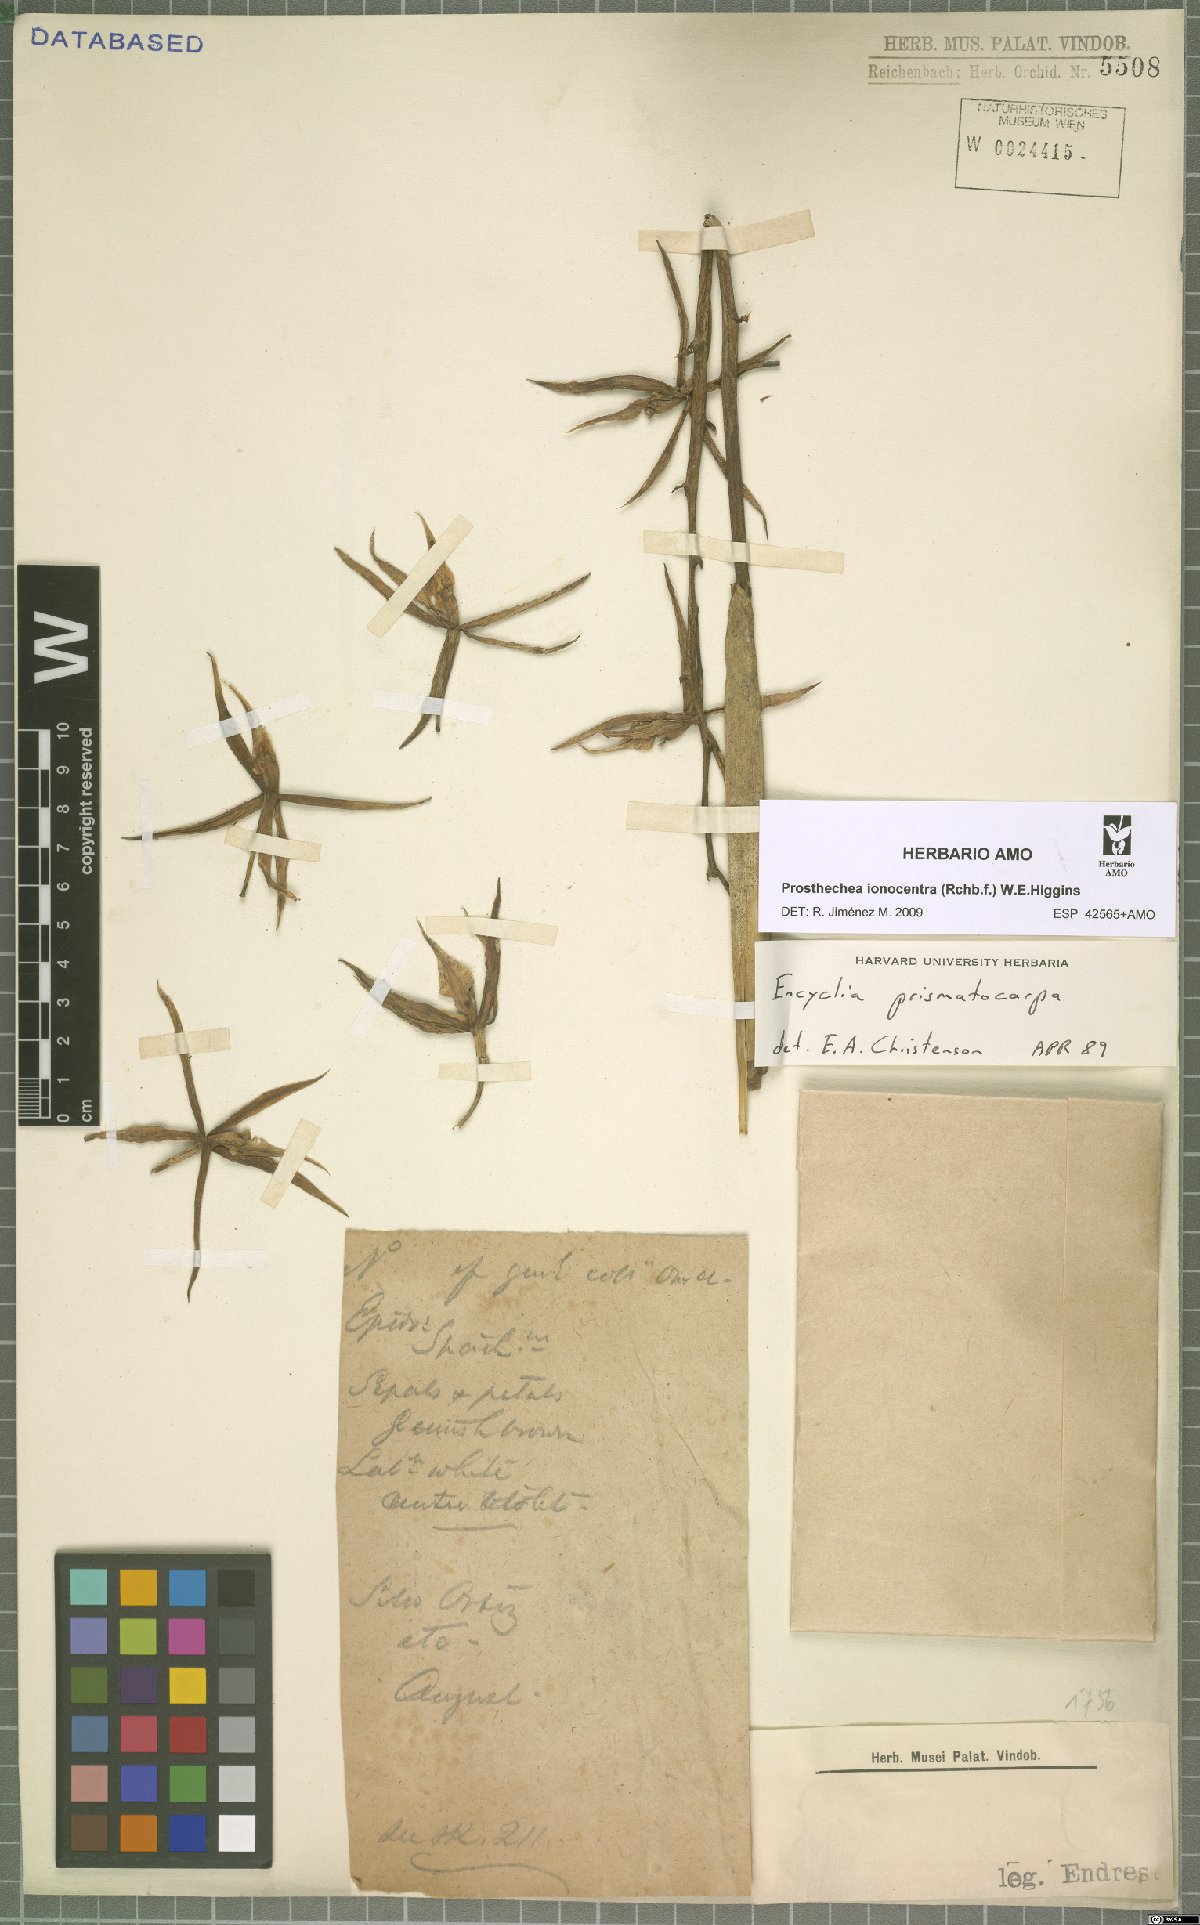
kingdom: Plantae
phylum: Tracheophyta
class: Liliopsida
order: Asparagales
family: Orchidaceae
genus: Prosthechea
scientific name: Prosthechea ionocentra
